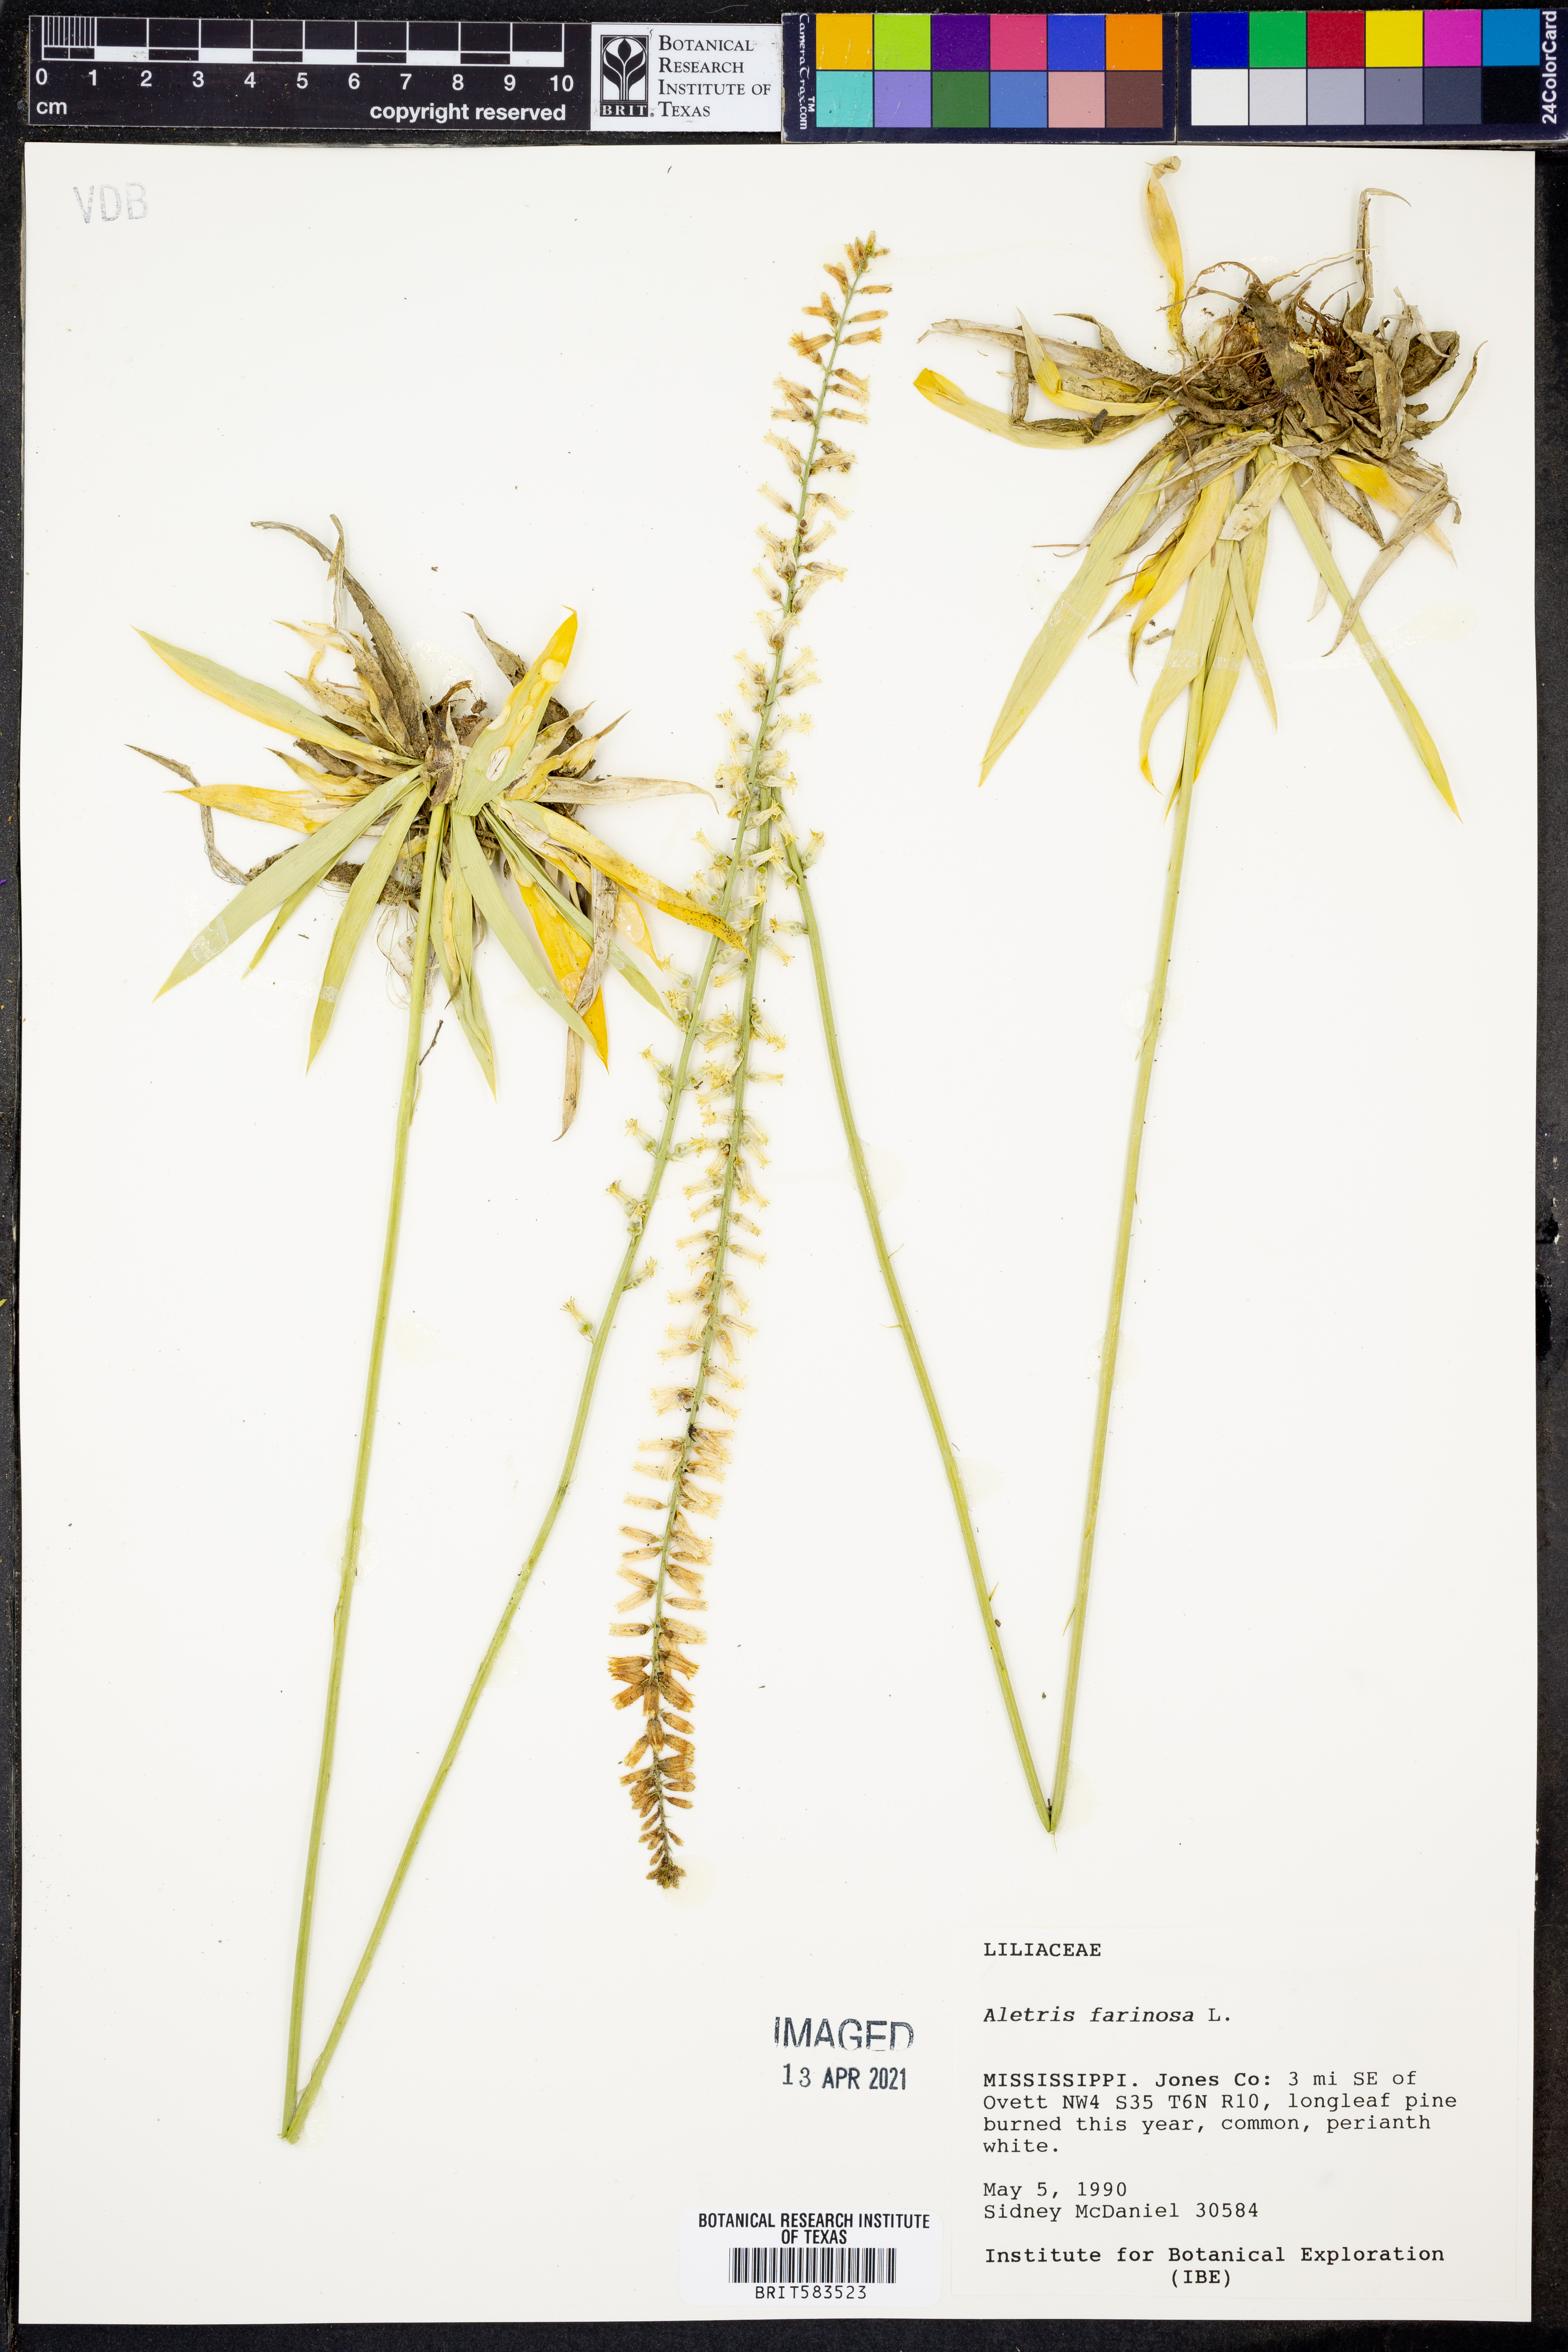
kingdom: Plantae
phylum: Tracheophyta
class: Liliopsida
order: Dioscoreales
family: Nartheciaceae
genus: Aletris
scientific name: Aletris farinosa
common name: Colicroot
